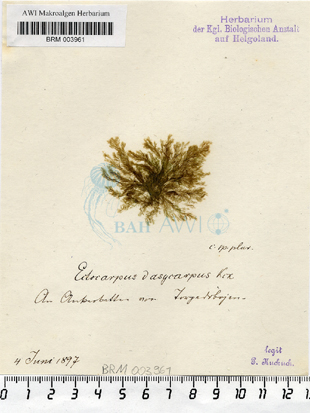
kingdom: Chromista
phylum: Ochrophyta
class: Phaeophyceae
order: Ectocarpales
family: Ectocarpaceae
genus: Ectocarpus
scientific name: Ectocarpus siliculosus
